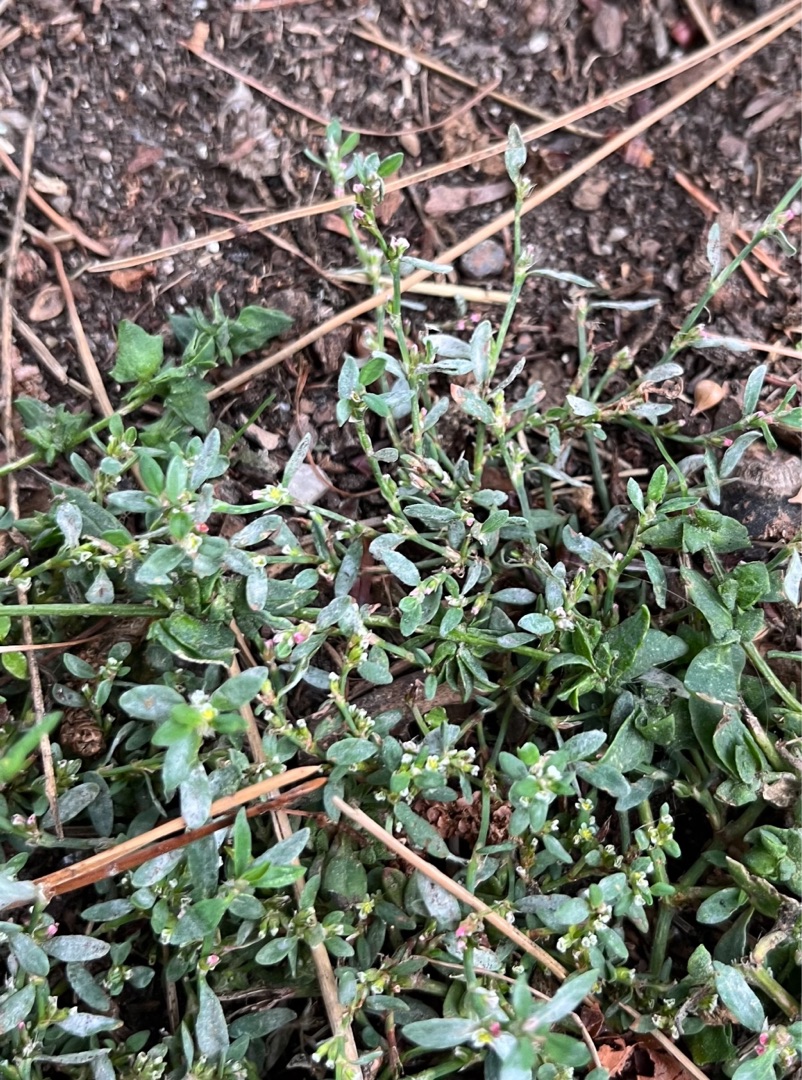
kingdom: Plantae
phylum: Tracheophyta
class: Magnoliopsida
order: Caryophyllales
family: Polygonaceae
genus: Polygonum
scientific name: Polygonum arenastrum
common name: Liggende vej-pileurt
